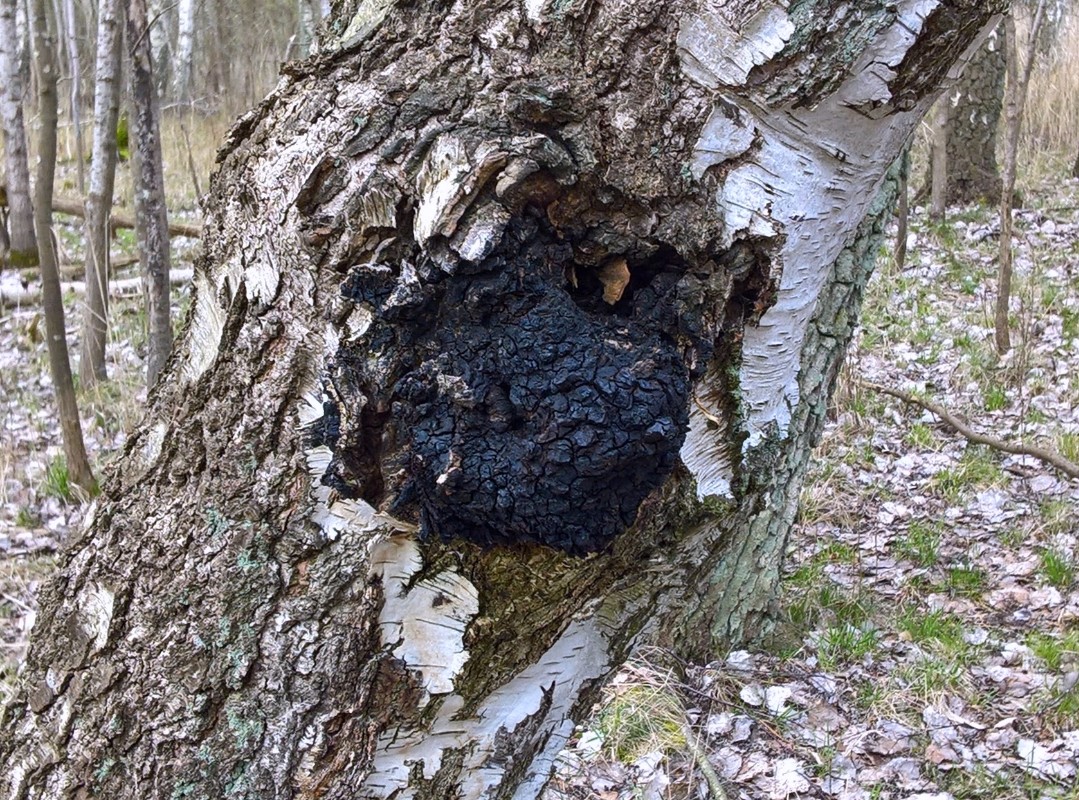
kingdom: Fungi
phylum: Basidiomycota
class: Agaricomycetes
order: Hymenochaetales
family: Hymenochaetaceae
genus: Inonotus
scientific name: Inonotus obliquus
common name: birke-spejlporesvamp
